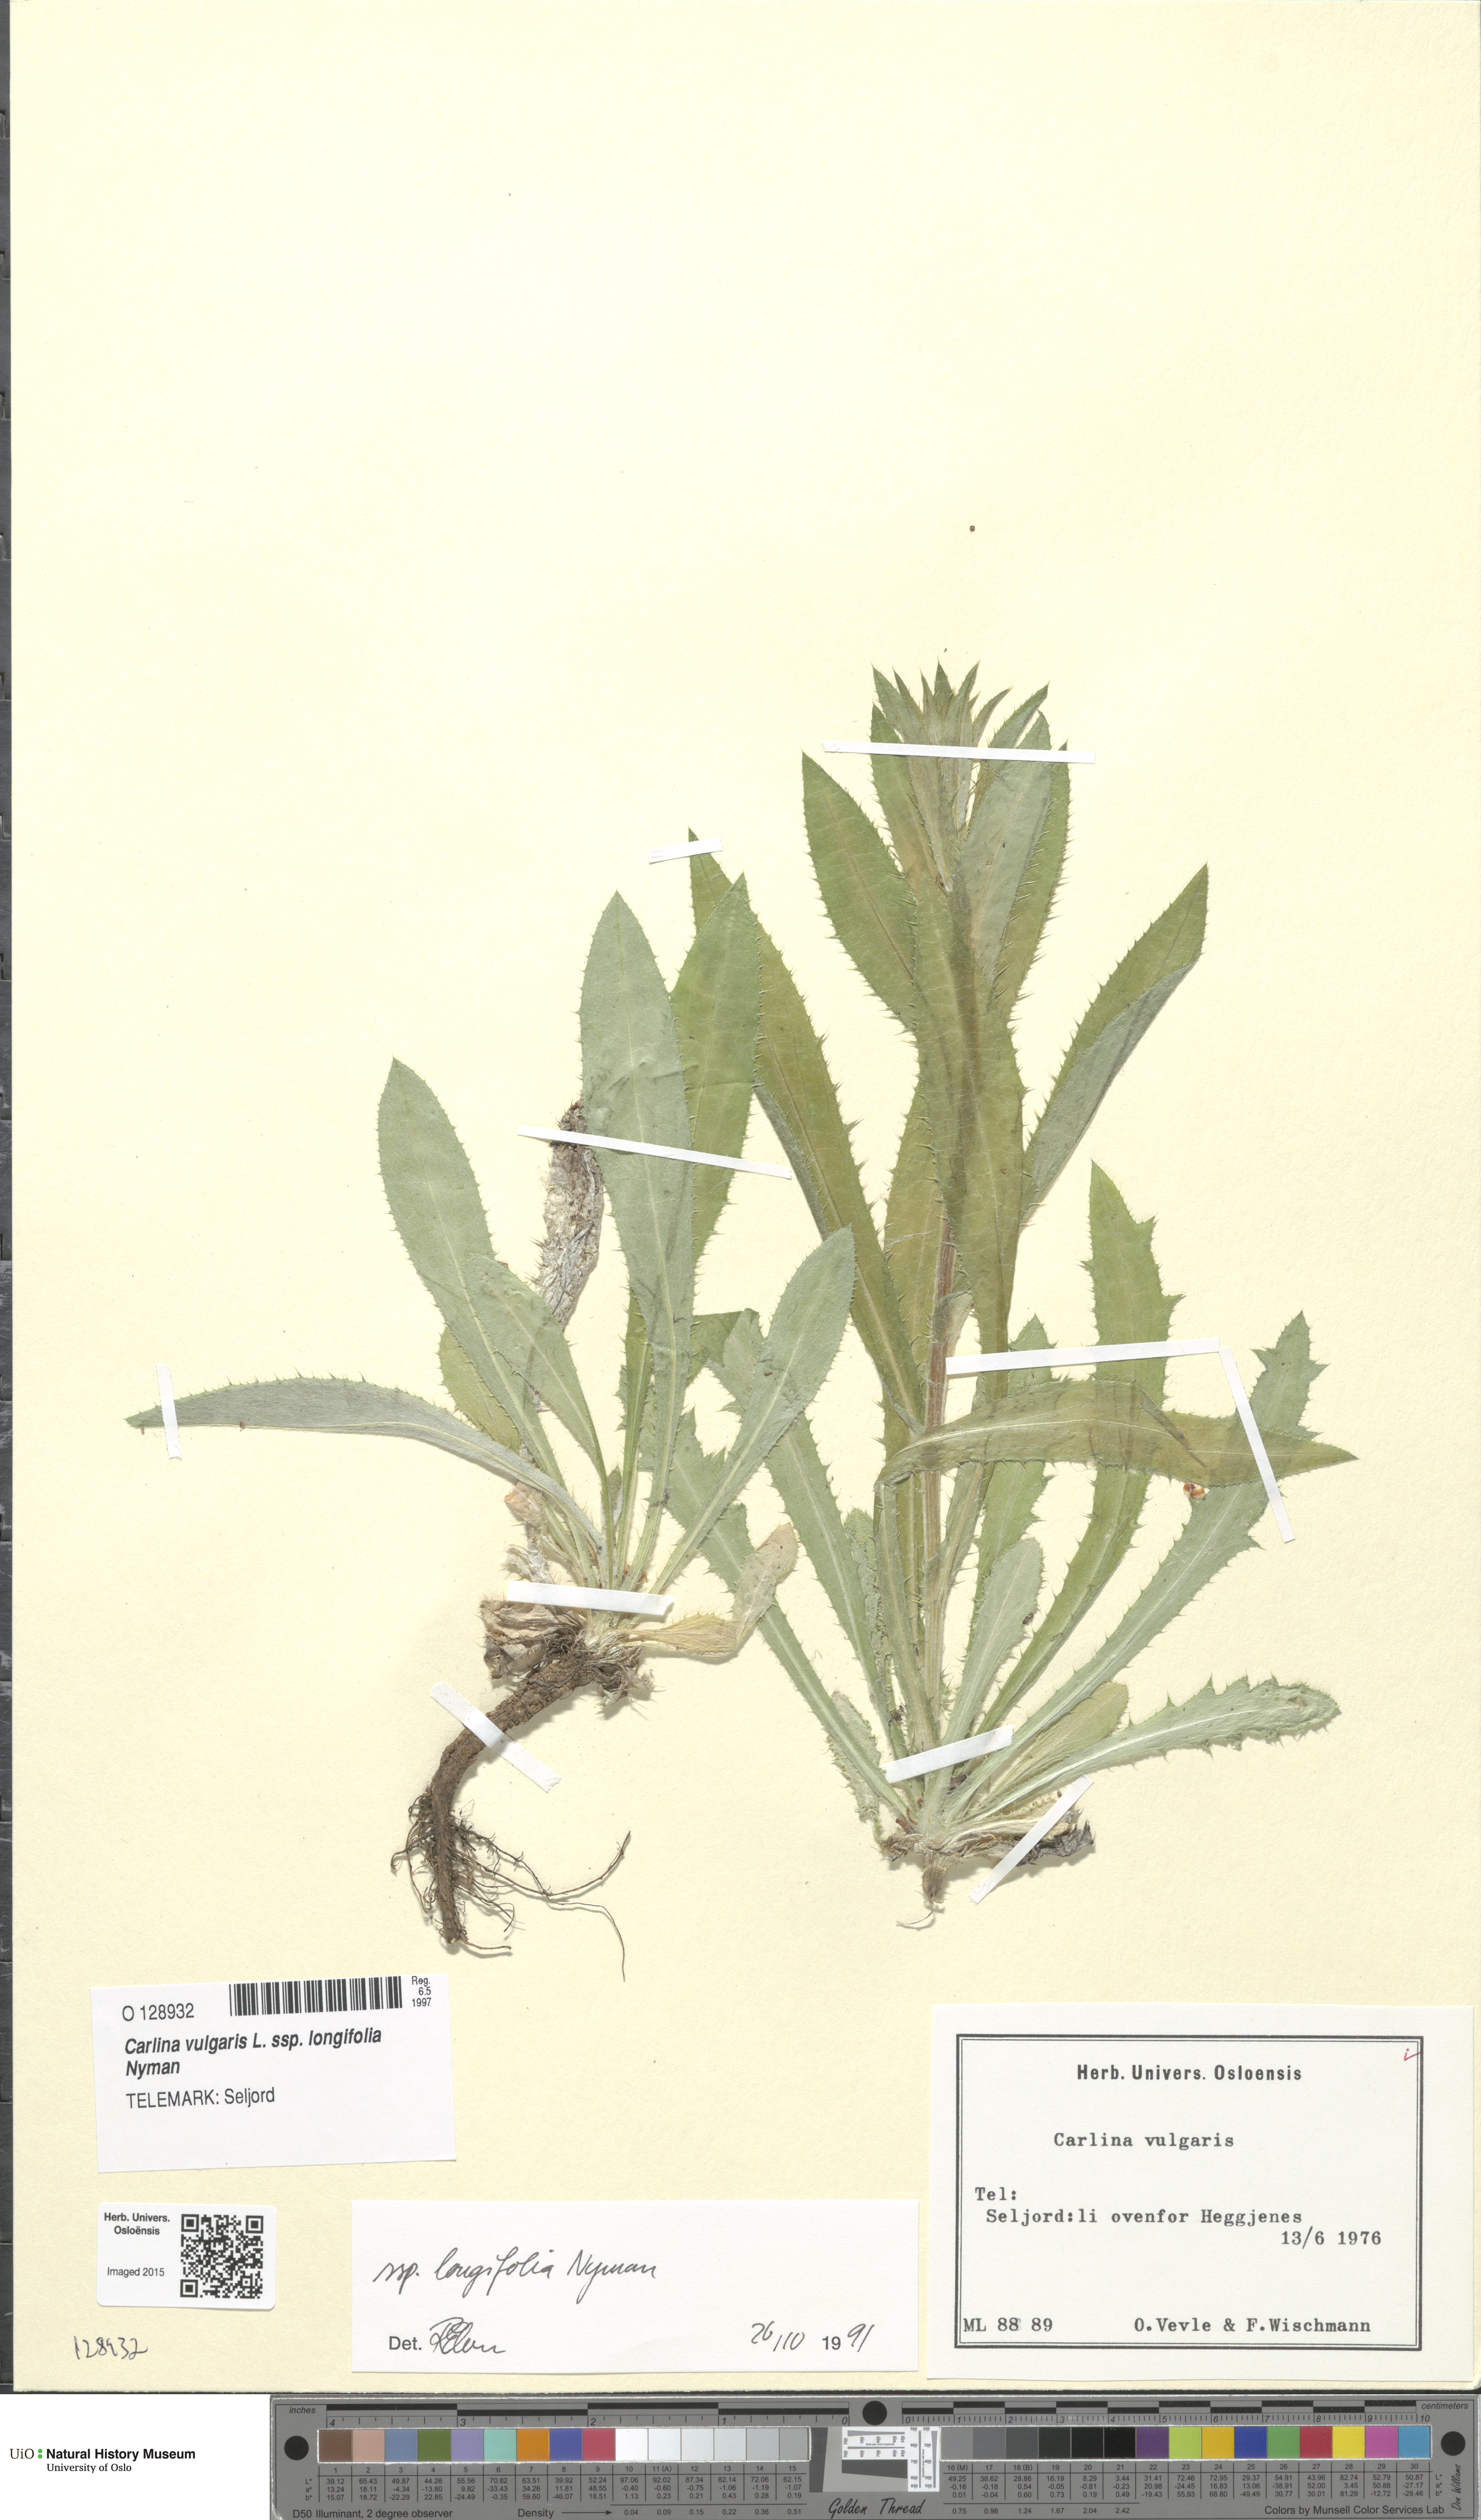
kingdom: Plantae
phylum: Tracheophyta
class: Magnoliopsida
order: Asterales
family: Asteraceae
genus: Carlina
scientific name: Carlina biebersteinii
